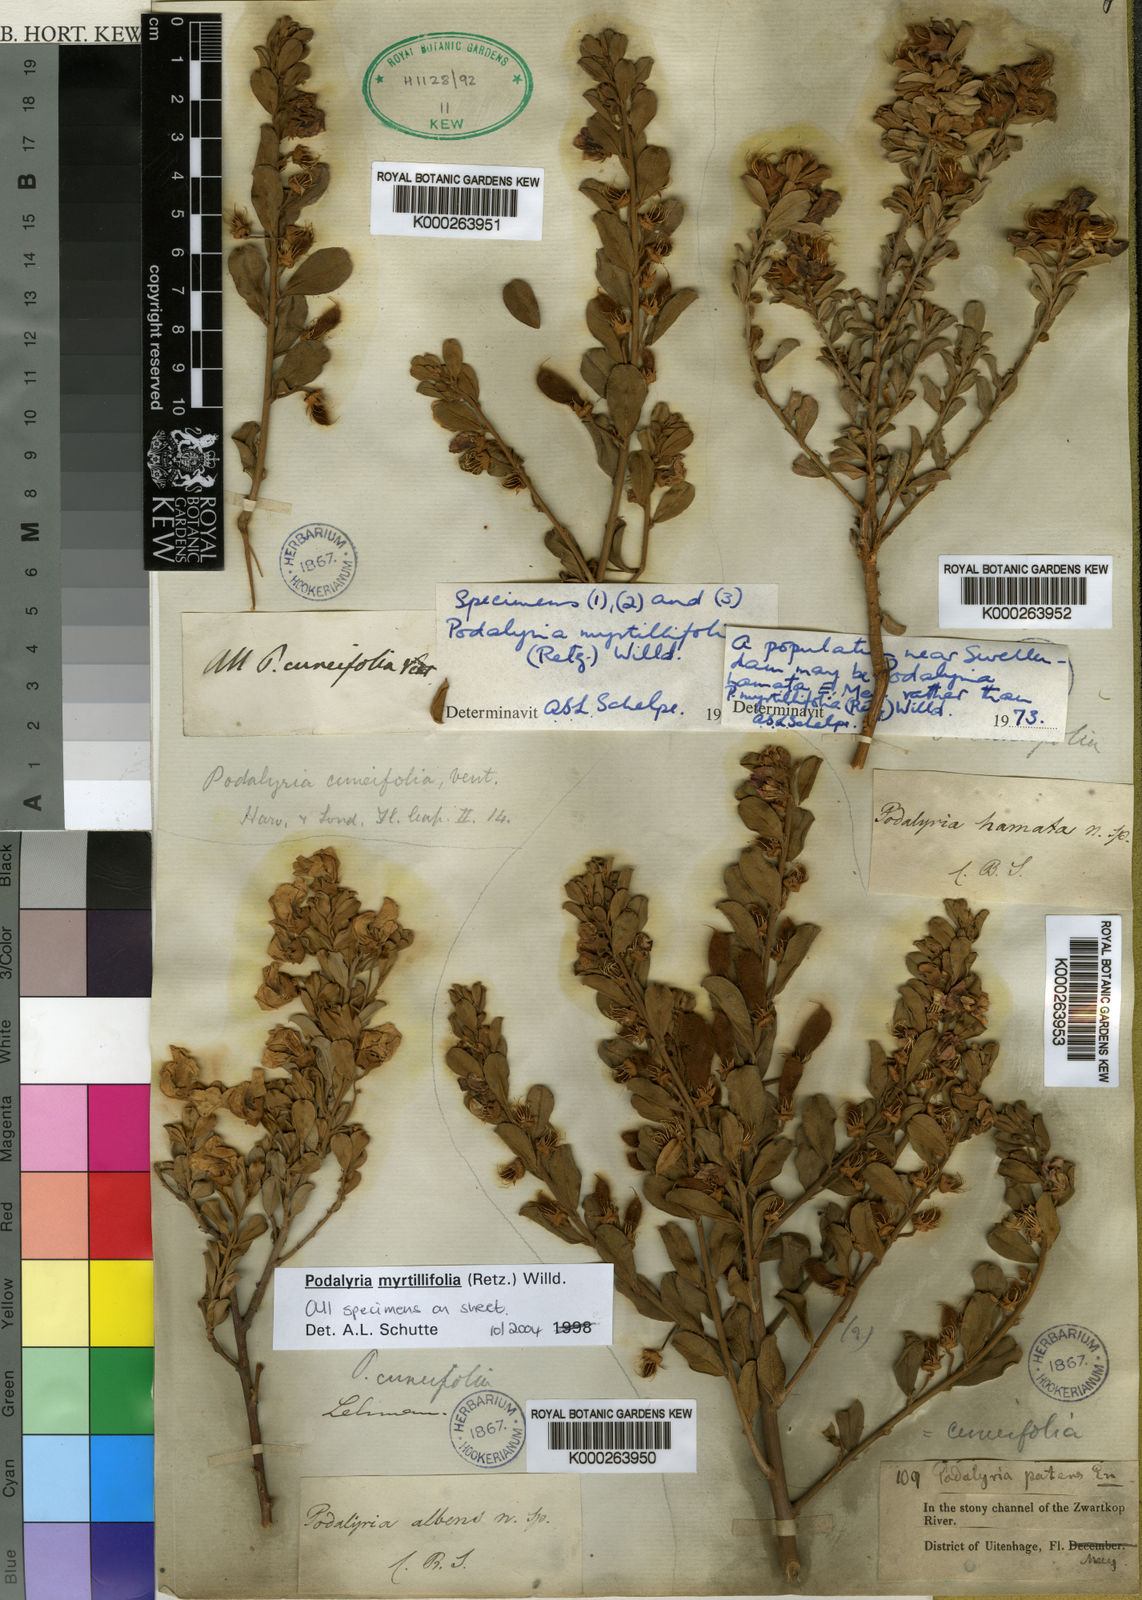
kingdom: Plantae
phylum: Tracheophyta
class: Magnoliopsida
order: Fabales
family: Fabaceae
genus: Podalyria
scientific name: Podalyria myrtillifolia
